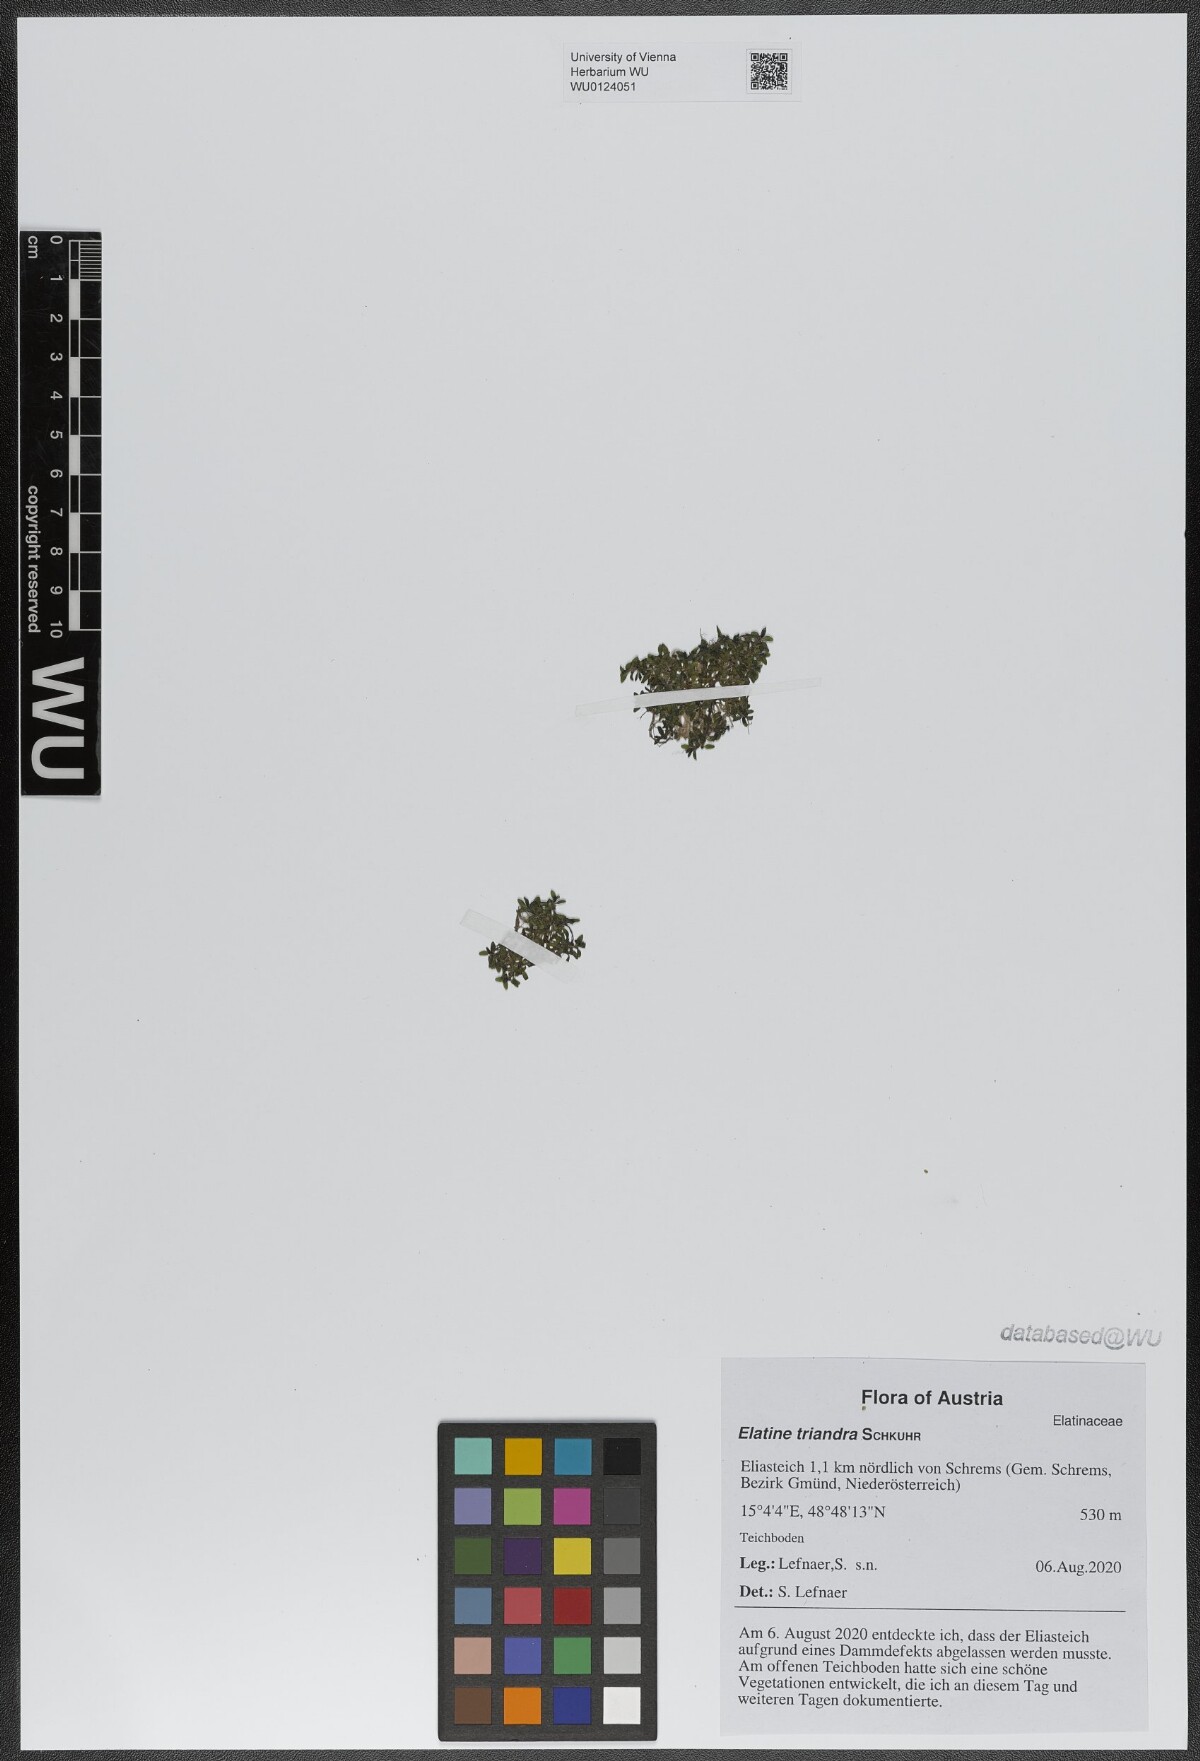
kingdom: Plantae
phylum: Tracheophyta
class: Magnoliopsida
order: Malpighiales
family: Elatinaceae
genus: Elatine
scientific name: Elatine triandra
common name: Three-stamened waterwort
